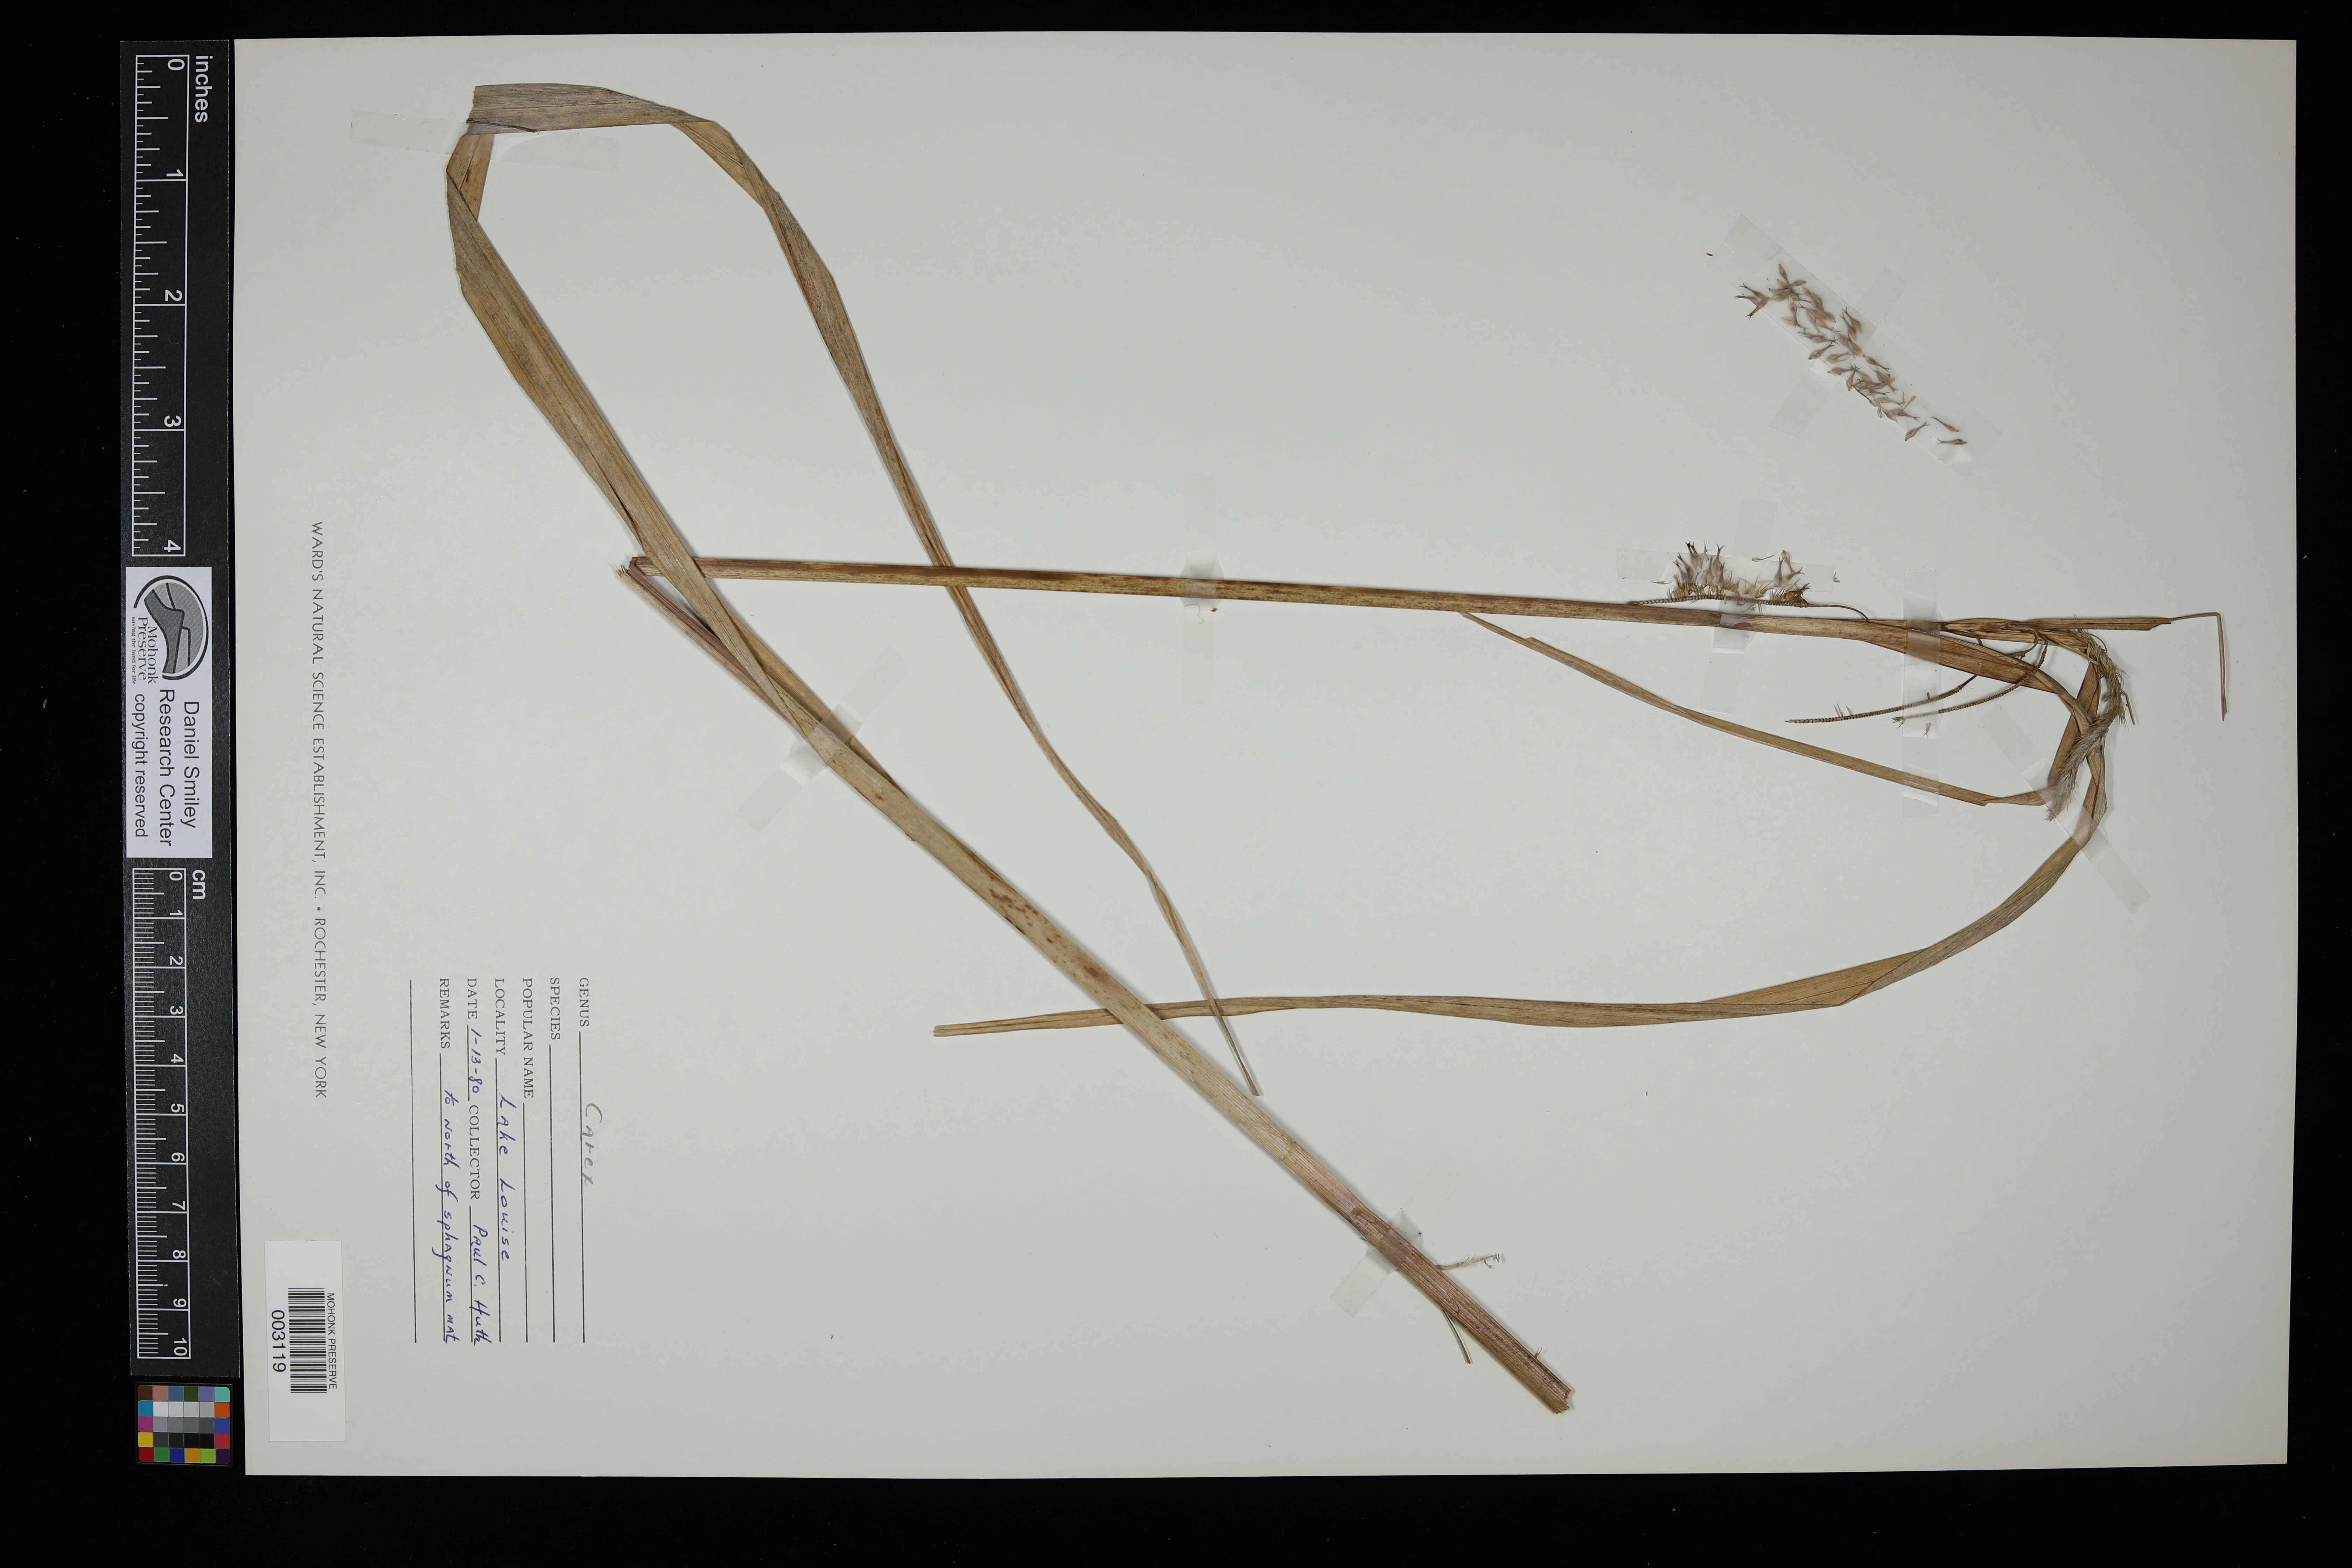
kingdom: Plantae
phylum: Tracheophyta
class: Liliopsida
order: Poales
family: Cyperaceae
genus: Carex
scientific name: Carex
